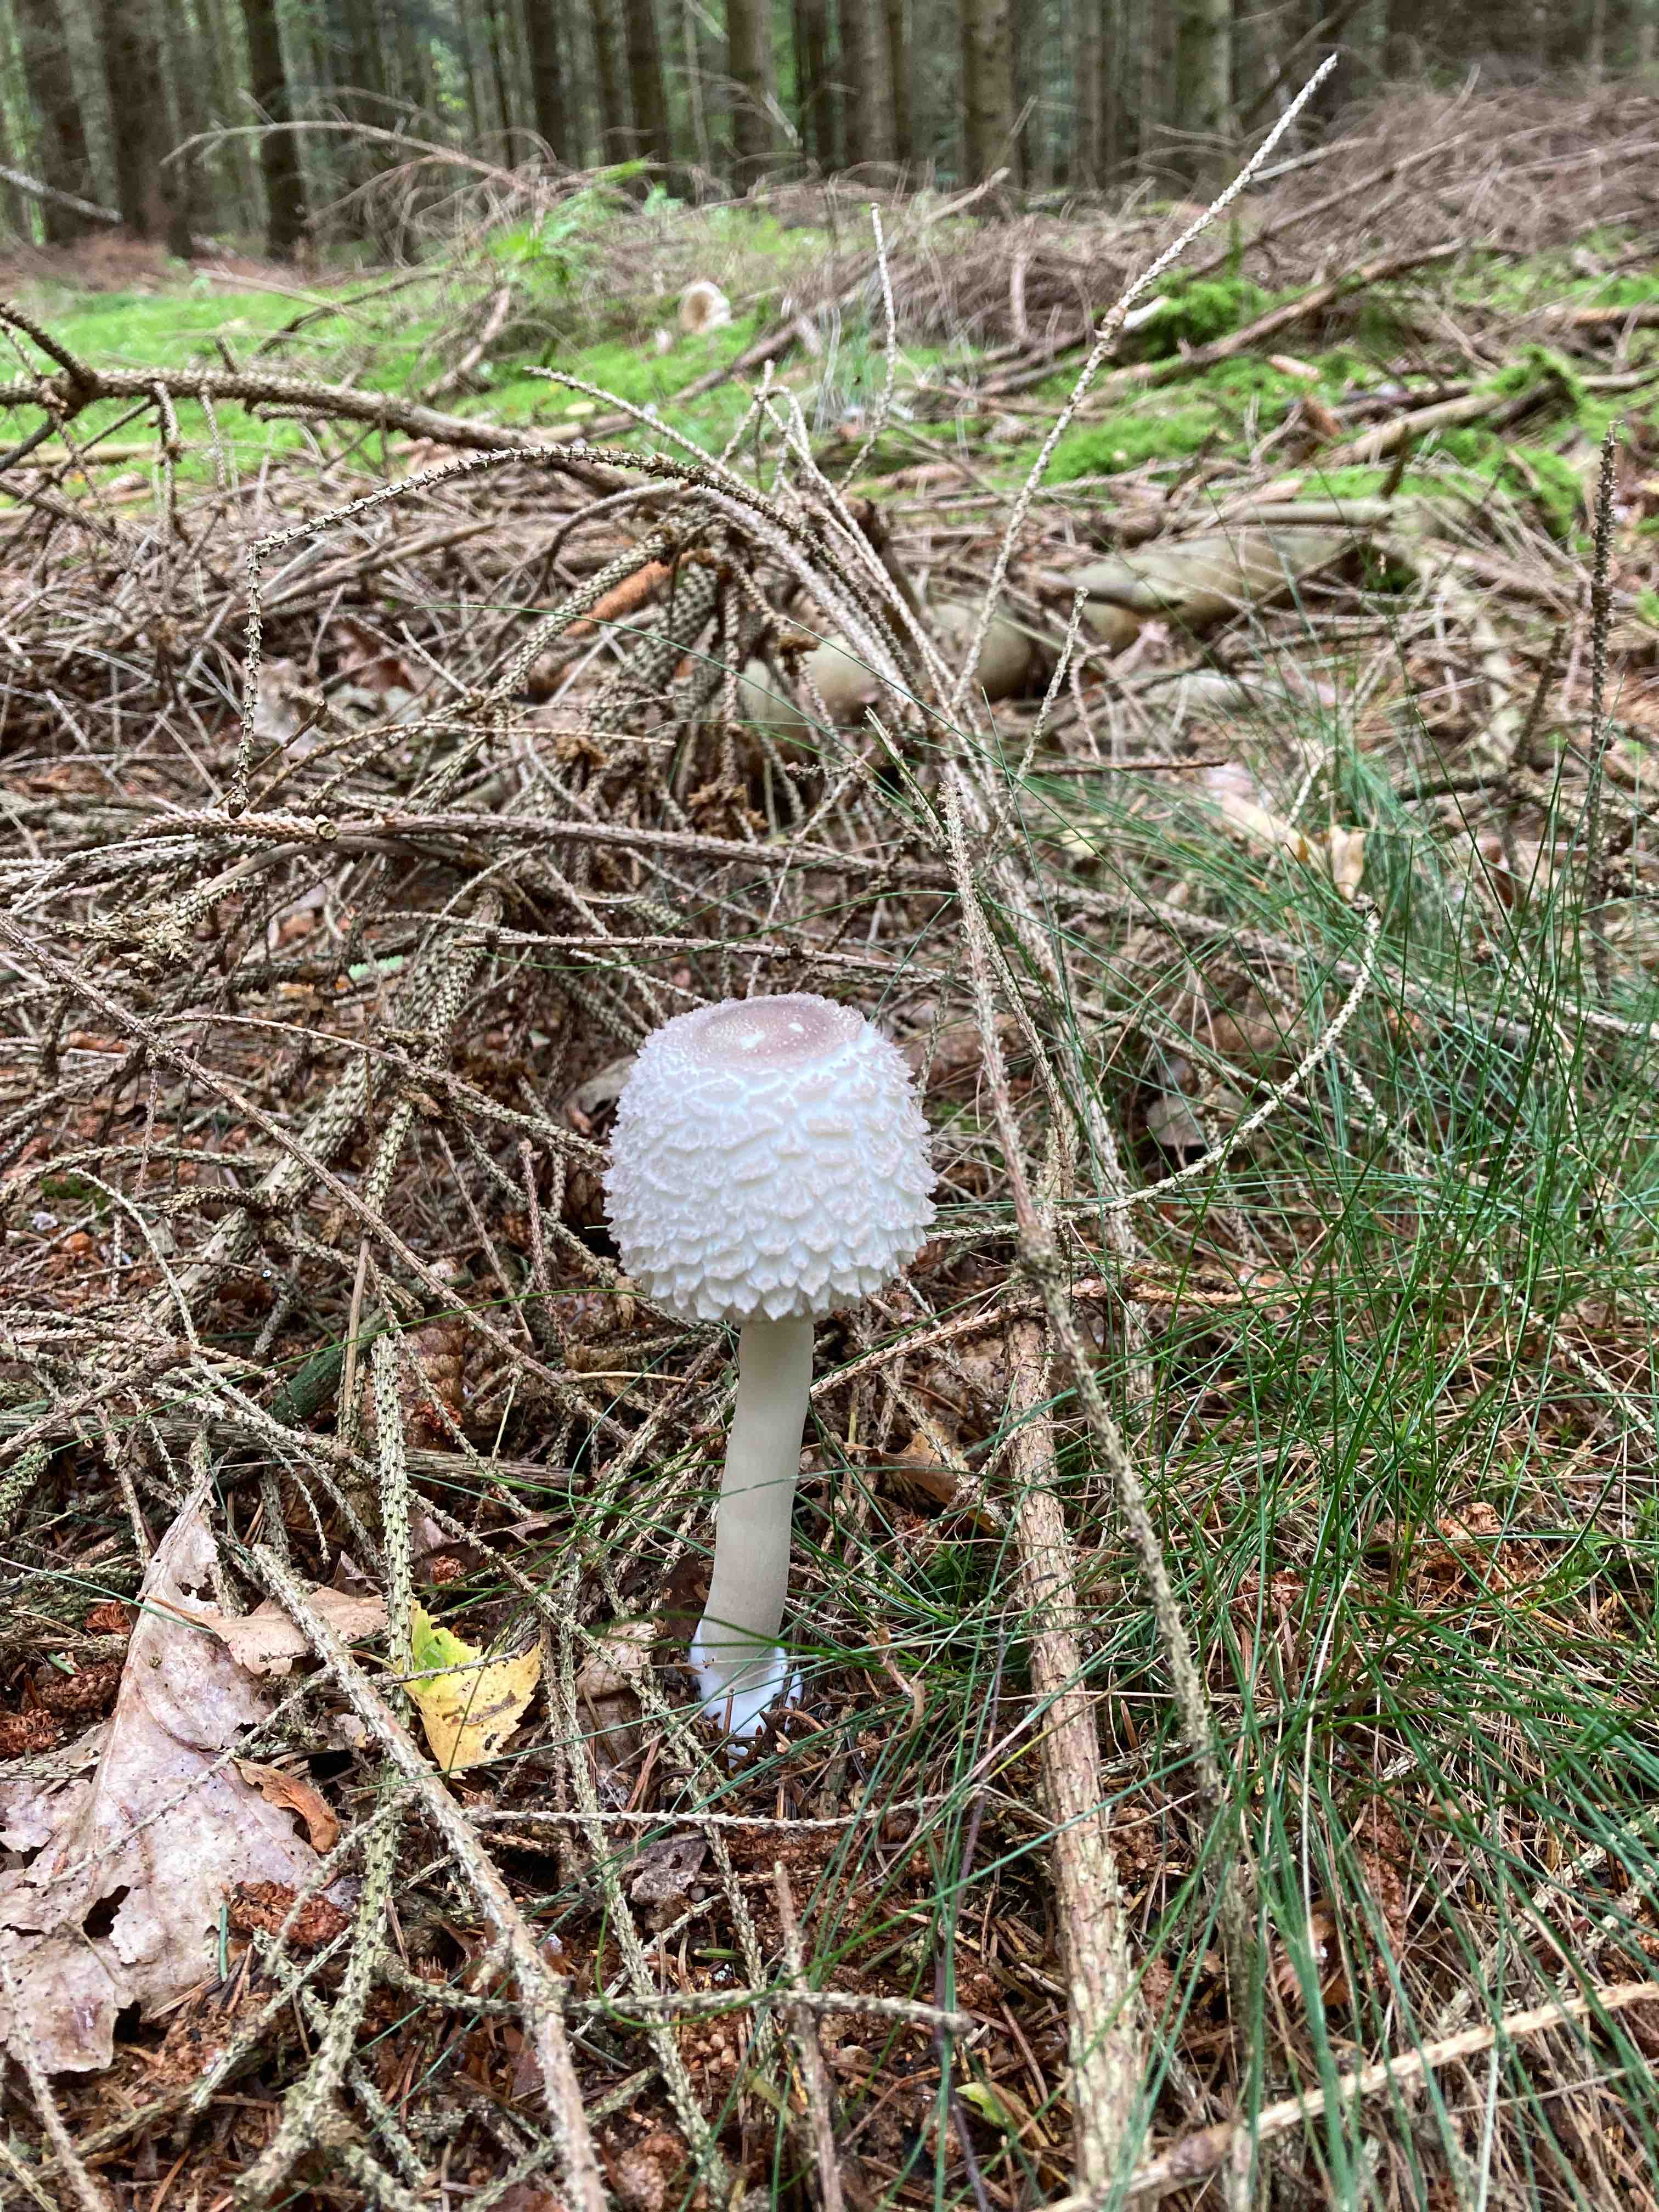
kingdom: Fungi
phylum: Basidiomycota
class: Agaricomycetes
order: Agaricales
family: Agaricaceae
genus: Leucoagaricus
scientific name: Leucoagaricus nympharum
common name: gran-silkehat
